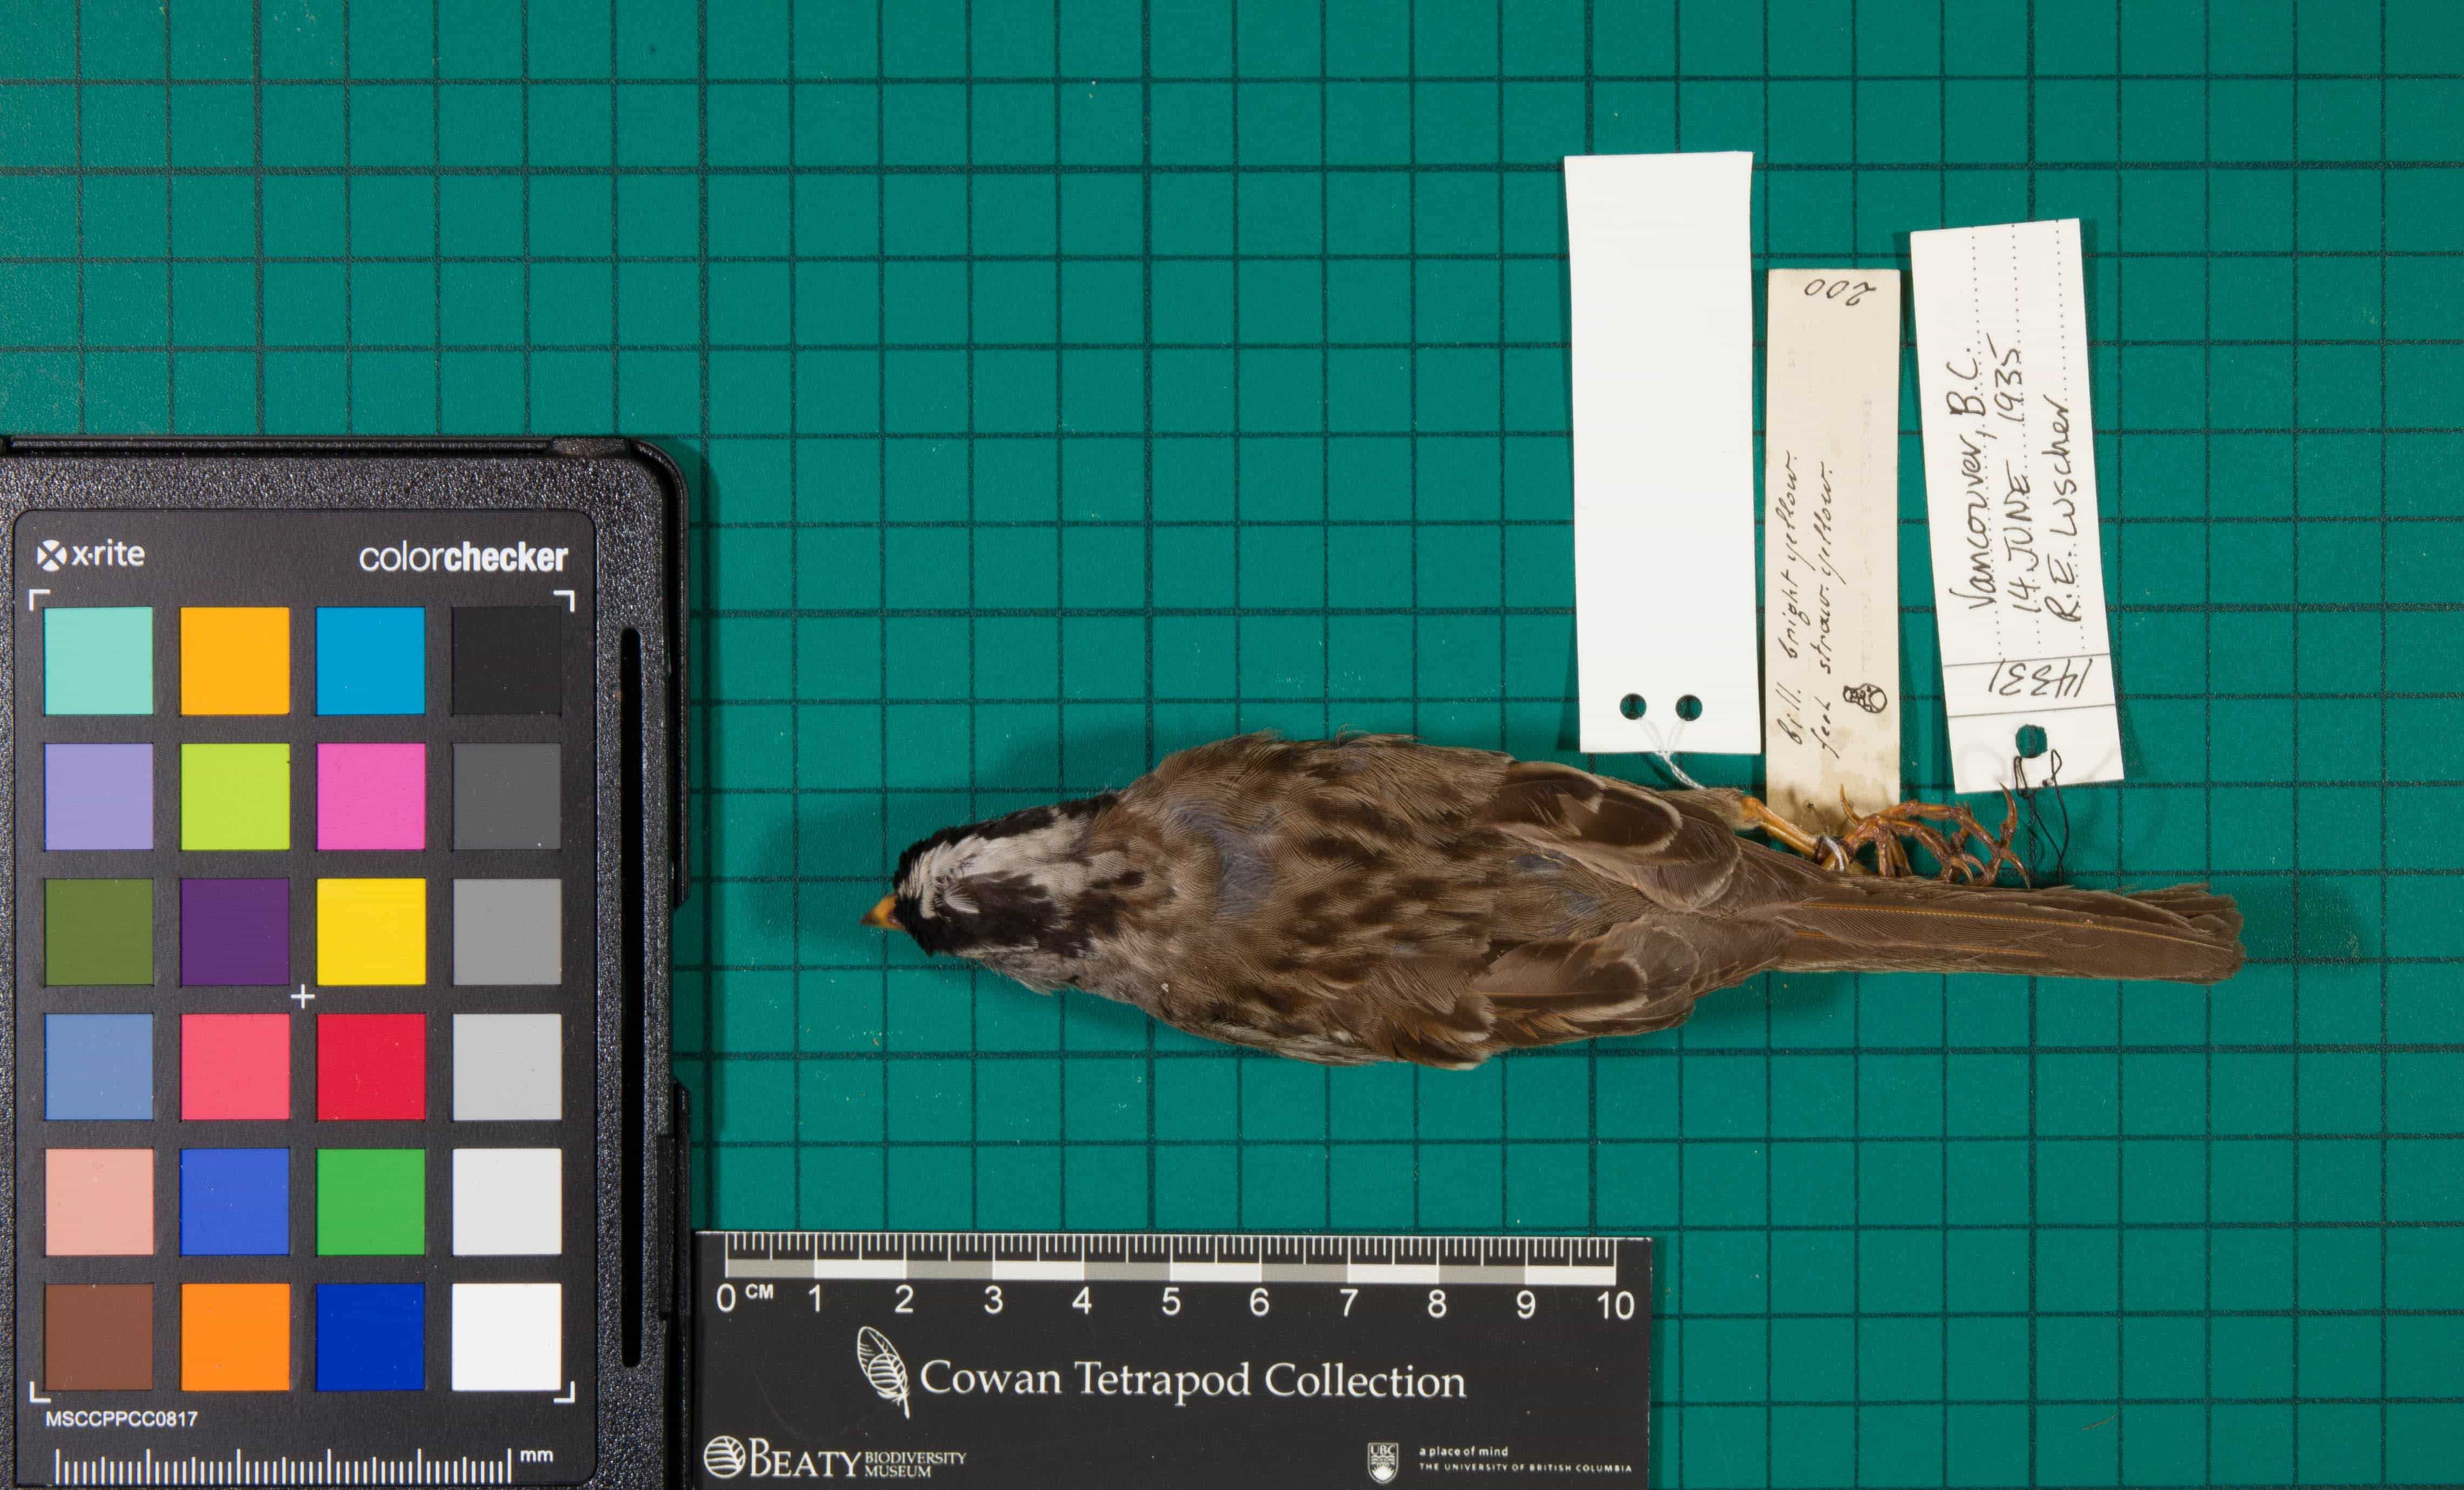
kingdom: Animalia
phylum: Chordata
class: Aves
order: Passeriformes
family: Passerellidae
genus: Zonotrichia
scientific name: Zonotrichia leucophrys
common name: White-crowned Sparrow
